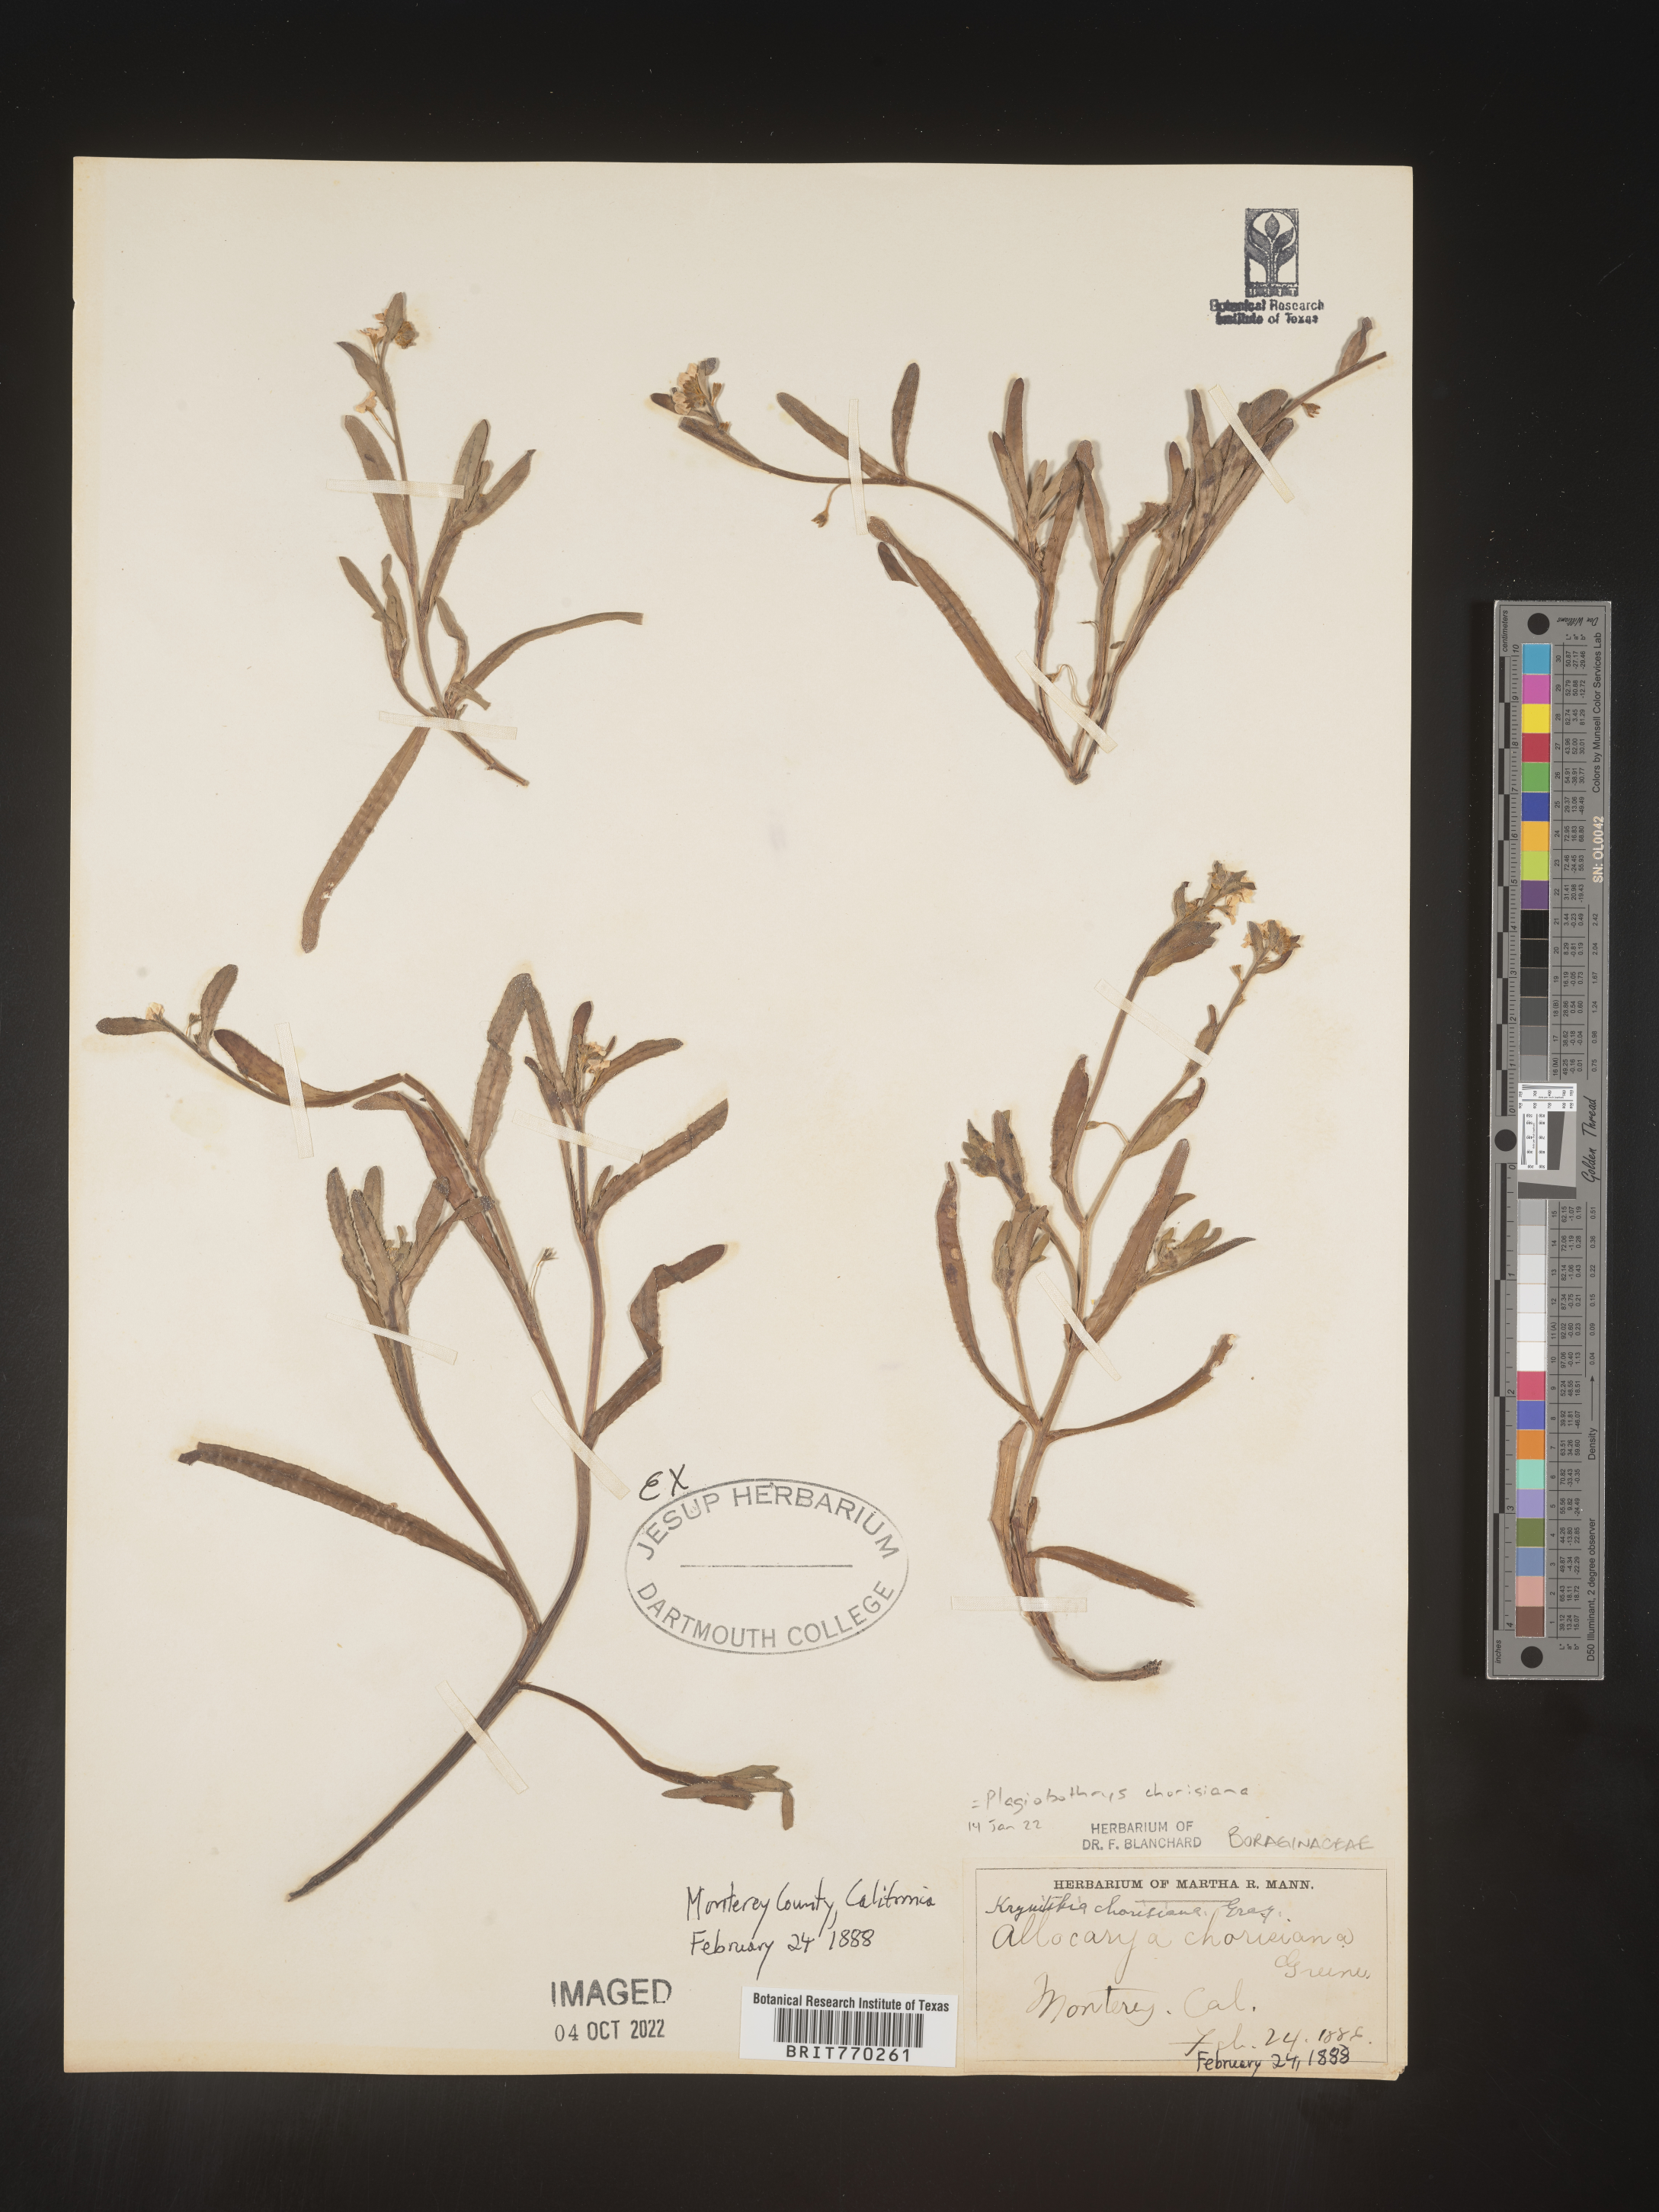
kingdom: Plantae
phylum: Tracheophyta
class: Magnoliopsida
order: Boraginales
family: Boraginaceae
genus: Plagiobothrys
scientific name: Plagiobothrys
